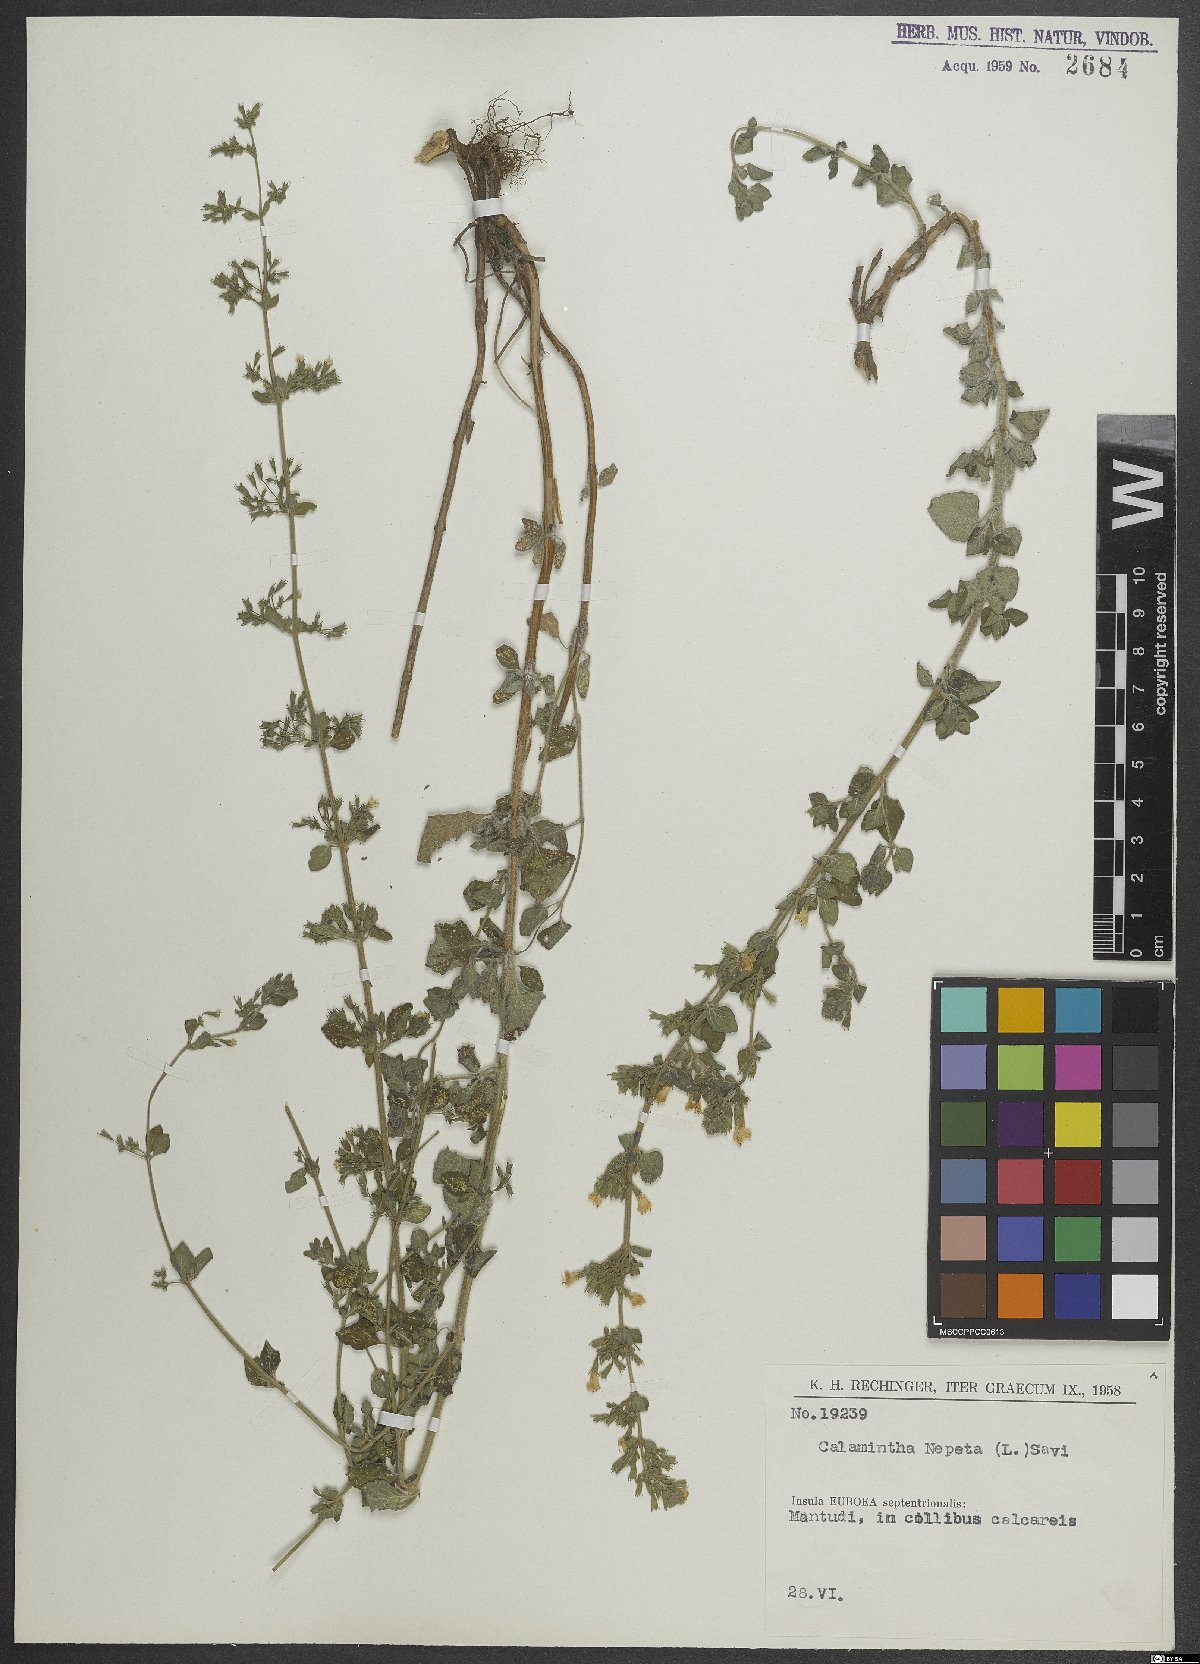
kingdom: Plantae
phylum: Tracheophyta
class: Magnoliopsida
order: Lamiales
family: Lamiaceae
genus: Clinopodium
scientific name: Clinopodium nepeta
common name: Lesser calamint
